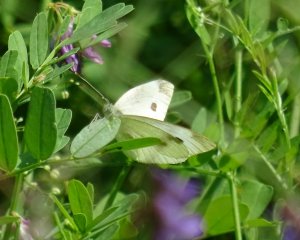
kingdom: Animalia
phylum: Arthropoda
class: Insecta
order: Lepidoptera
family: Pieridae
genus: Pieris
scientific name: Pieris rapae
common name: Cabbage White
